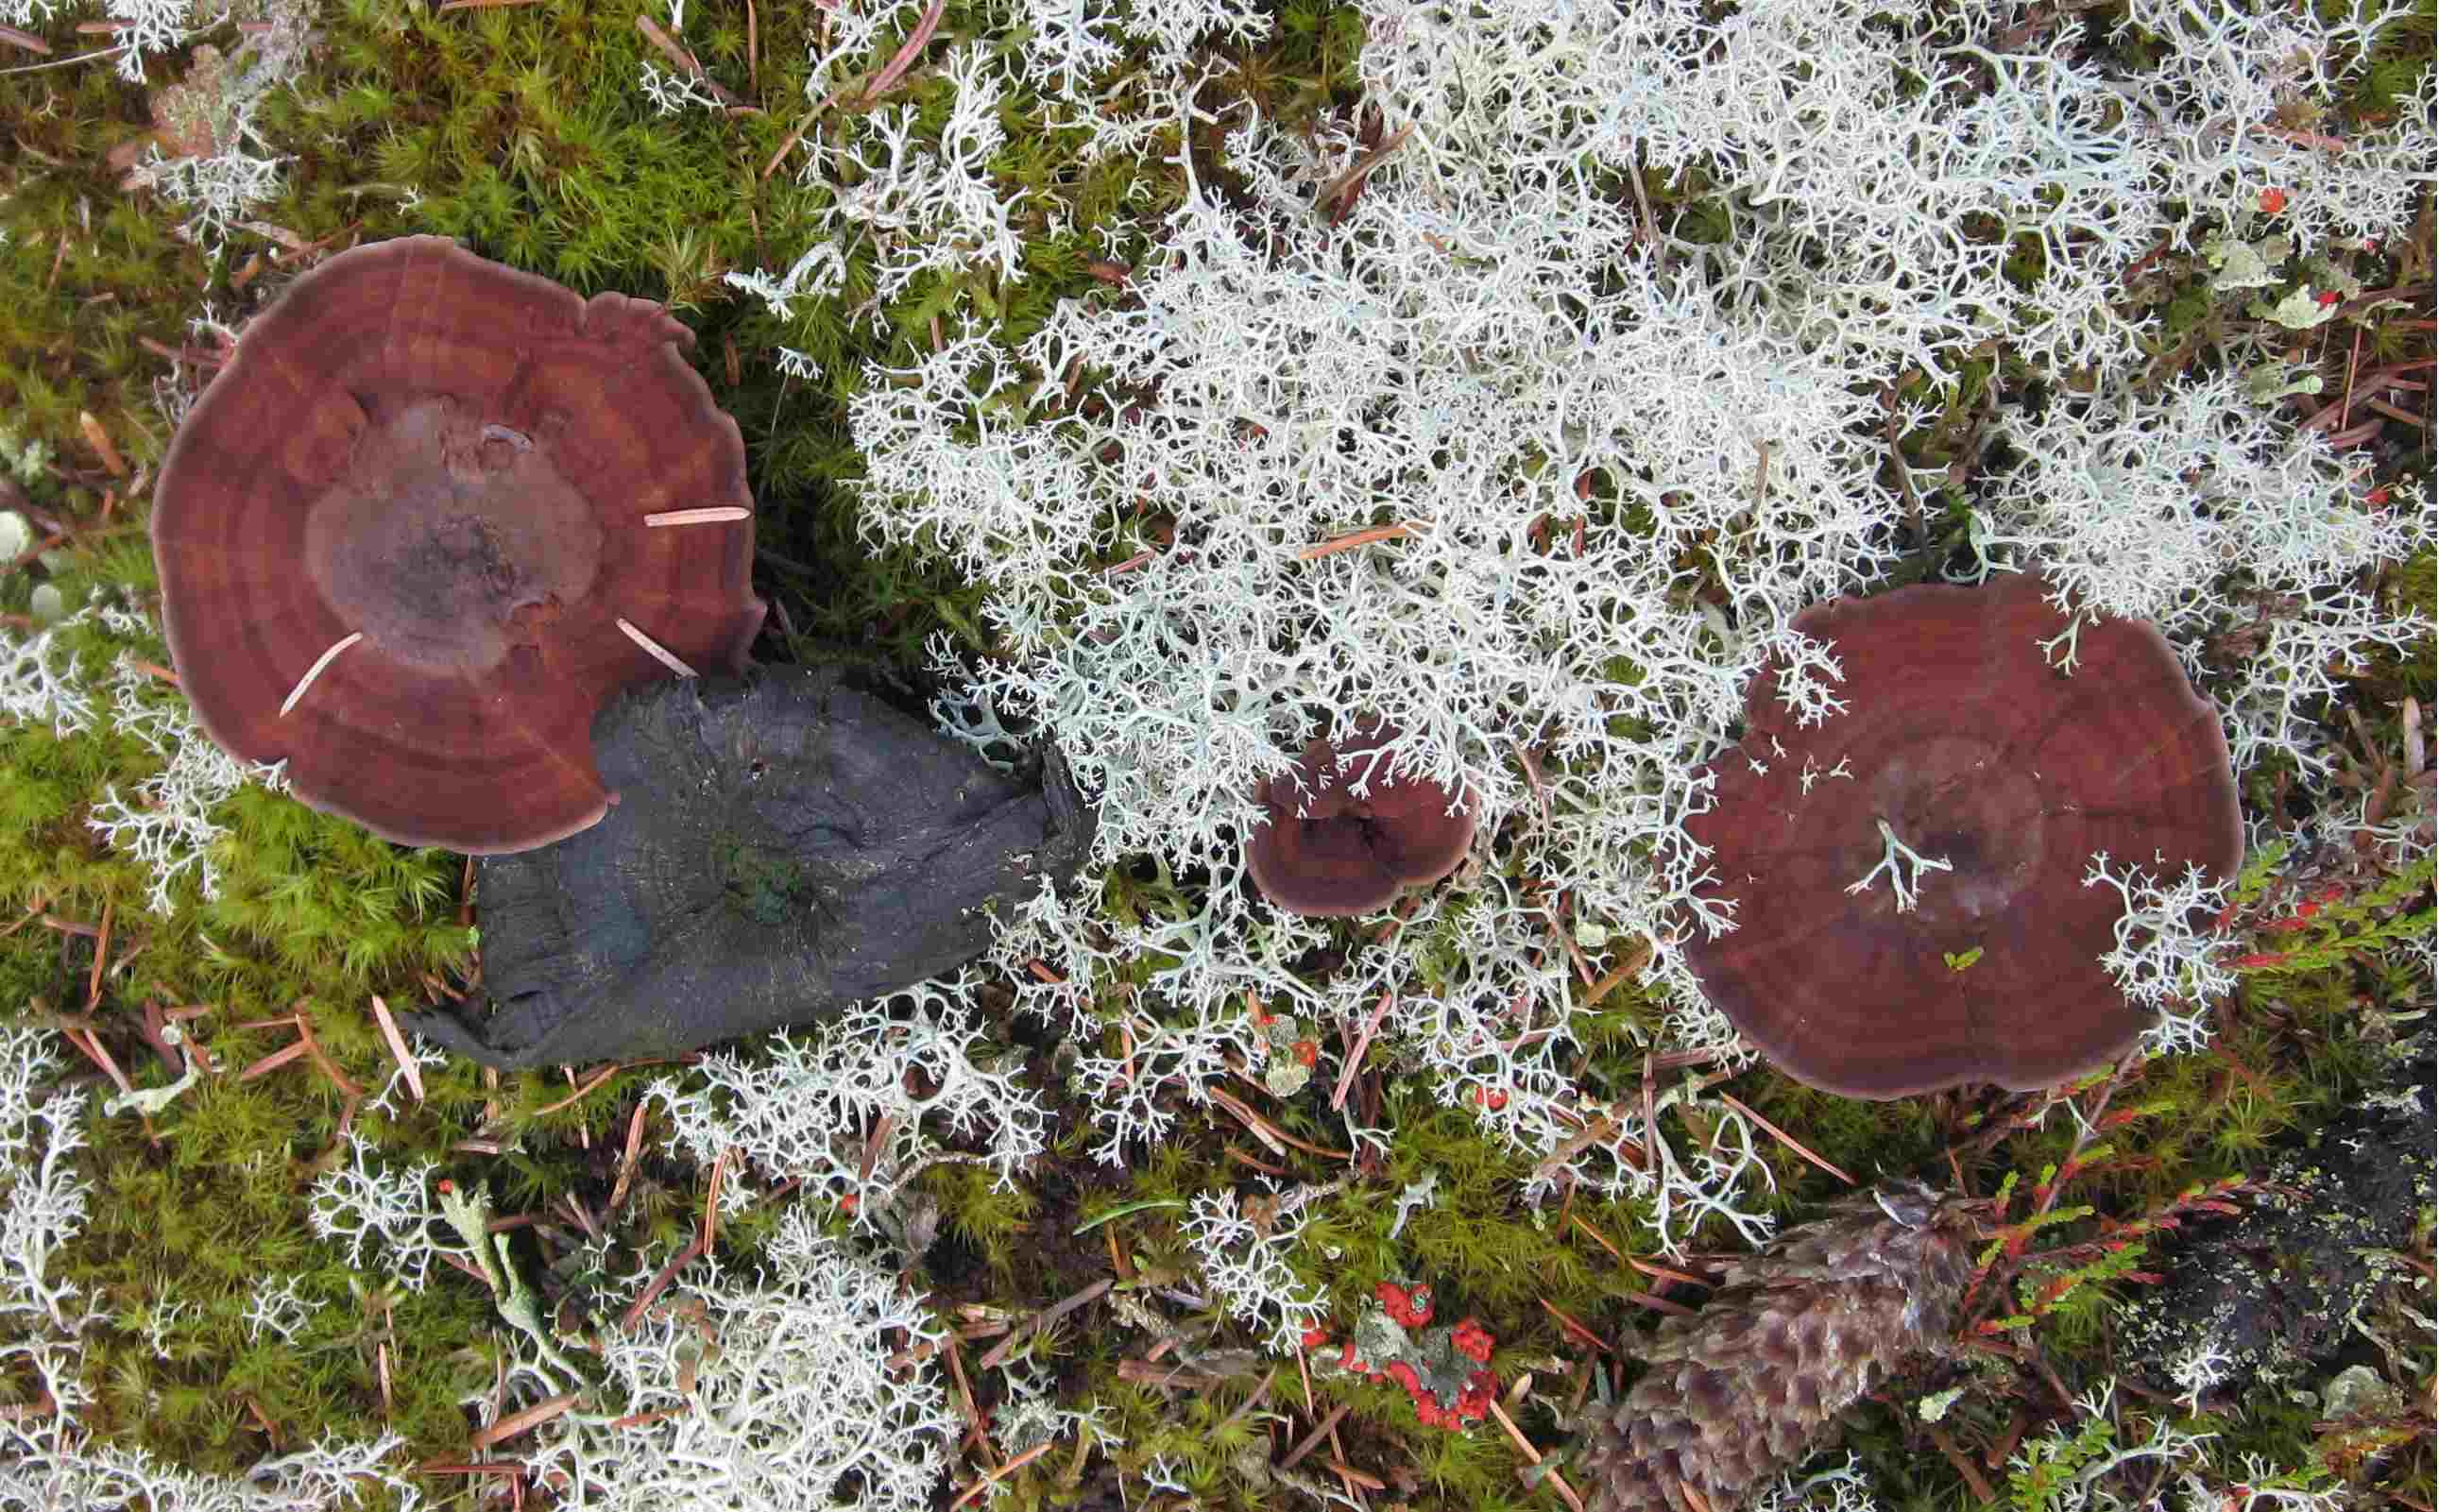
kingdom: Fungi
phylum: Basidiomycota
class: Agaricomycetes
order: Hymenochaetales
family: Hymenochaetaceae
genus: Coltricia
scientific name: Coltricia perennis
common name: almindelig sandporesvamp
